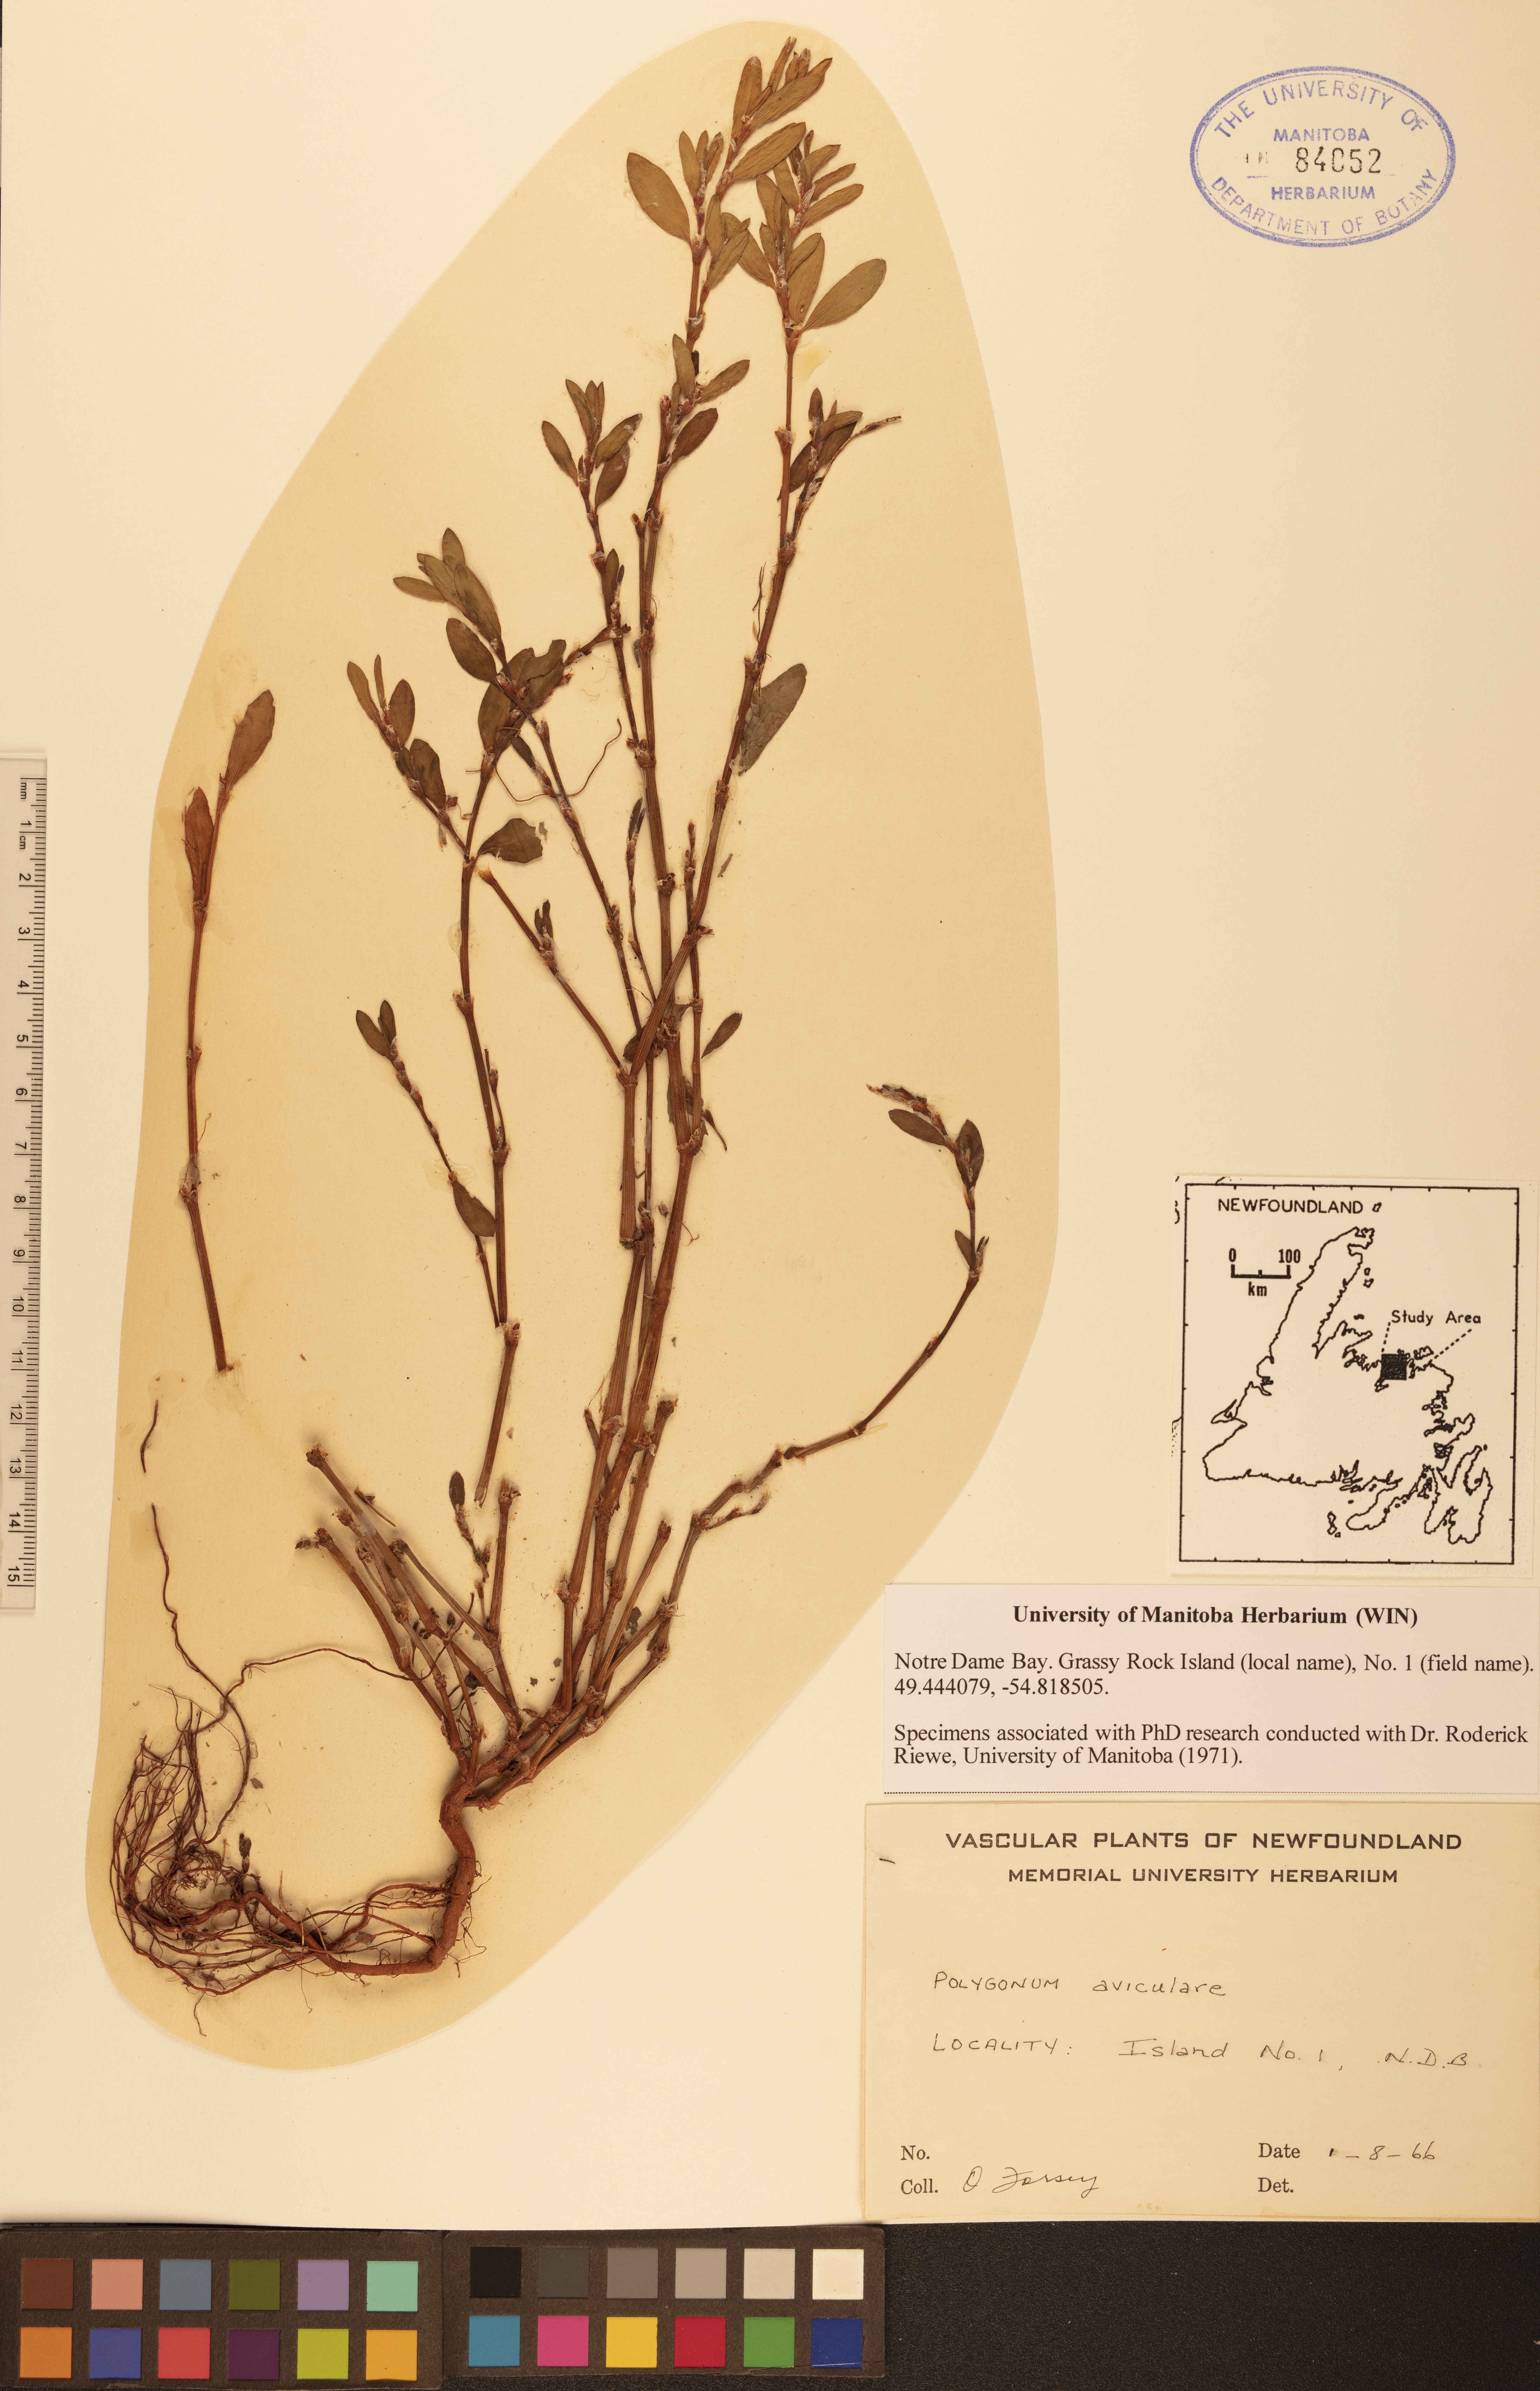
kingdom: Plantae
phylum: Tracheophyta
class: Magnoliopsida
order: Caryophyllales
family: Polygonaceae
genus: Polygonum
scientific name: Polygonum aviculare
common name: Prostrate knotweed
